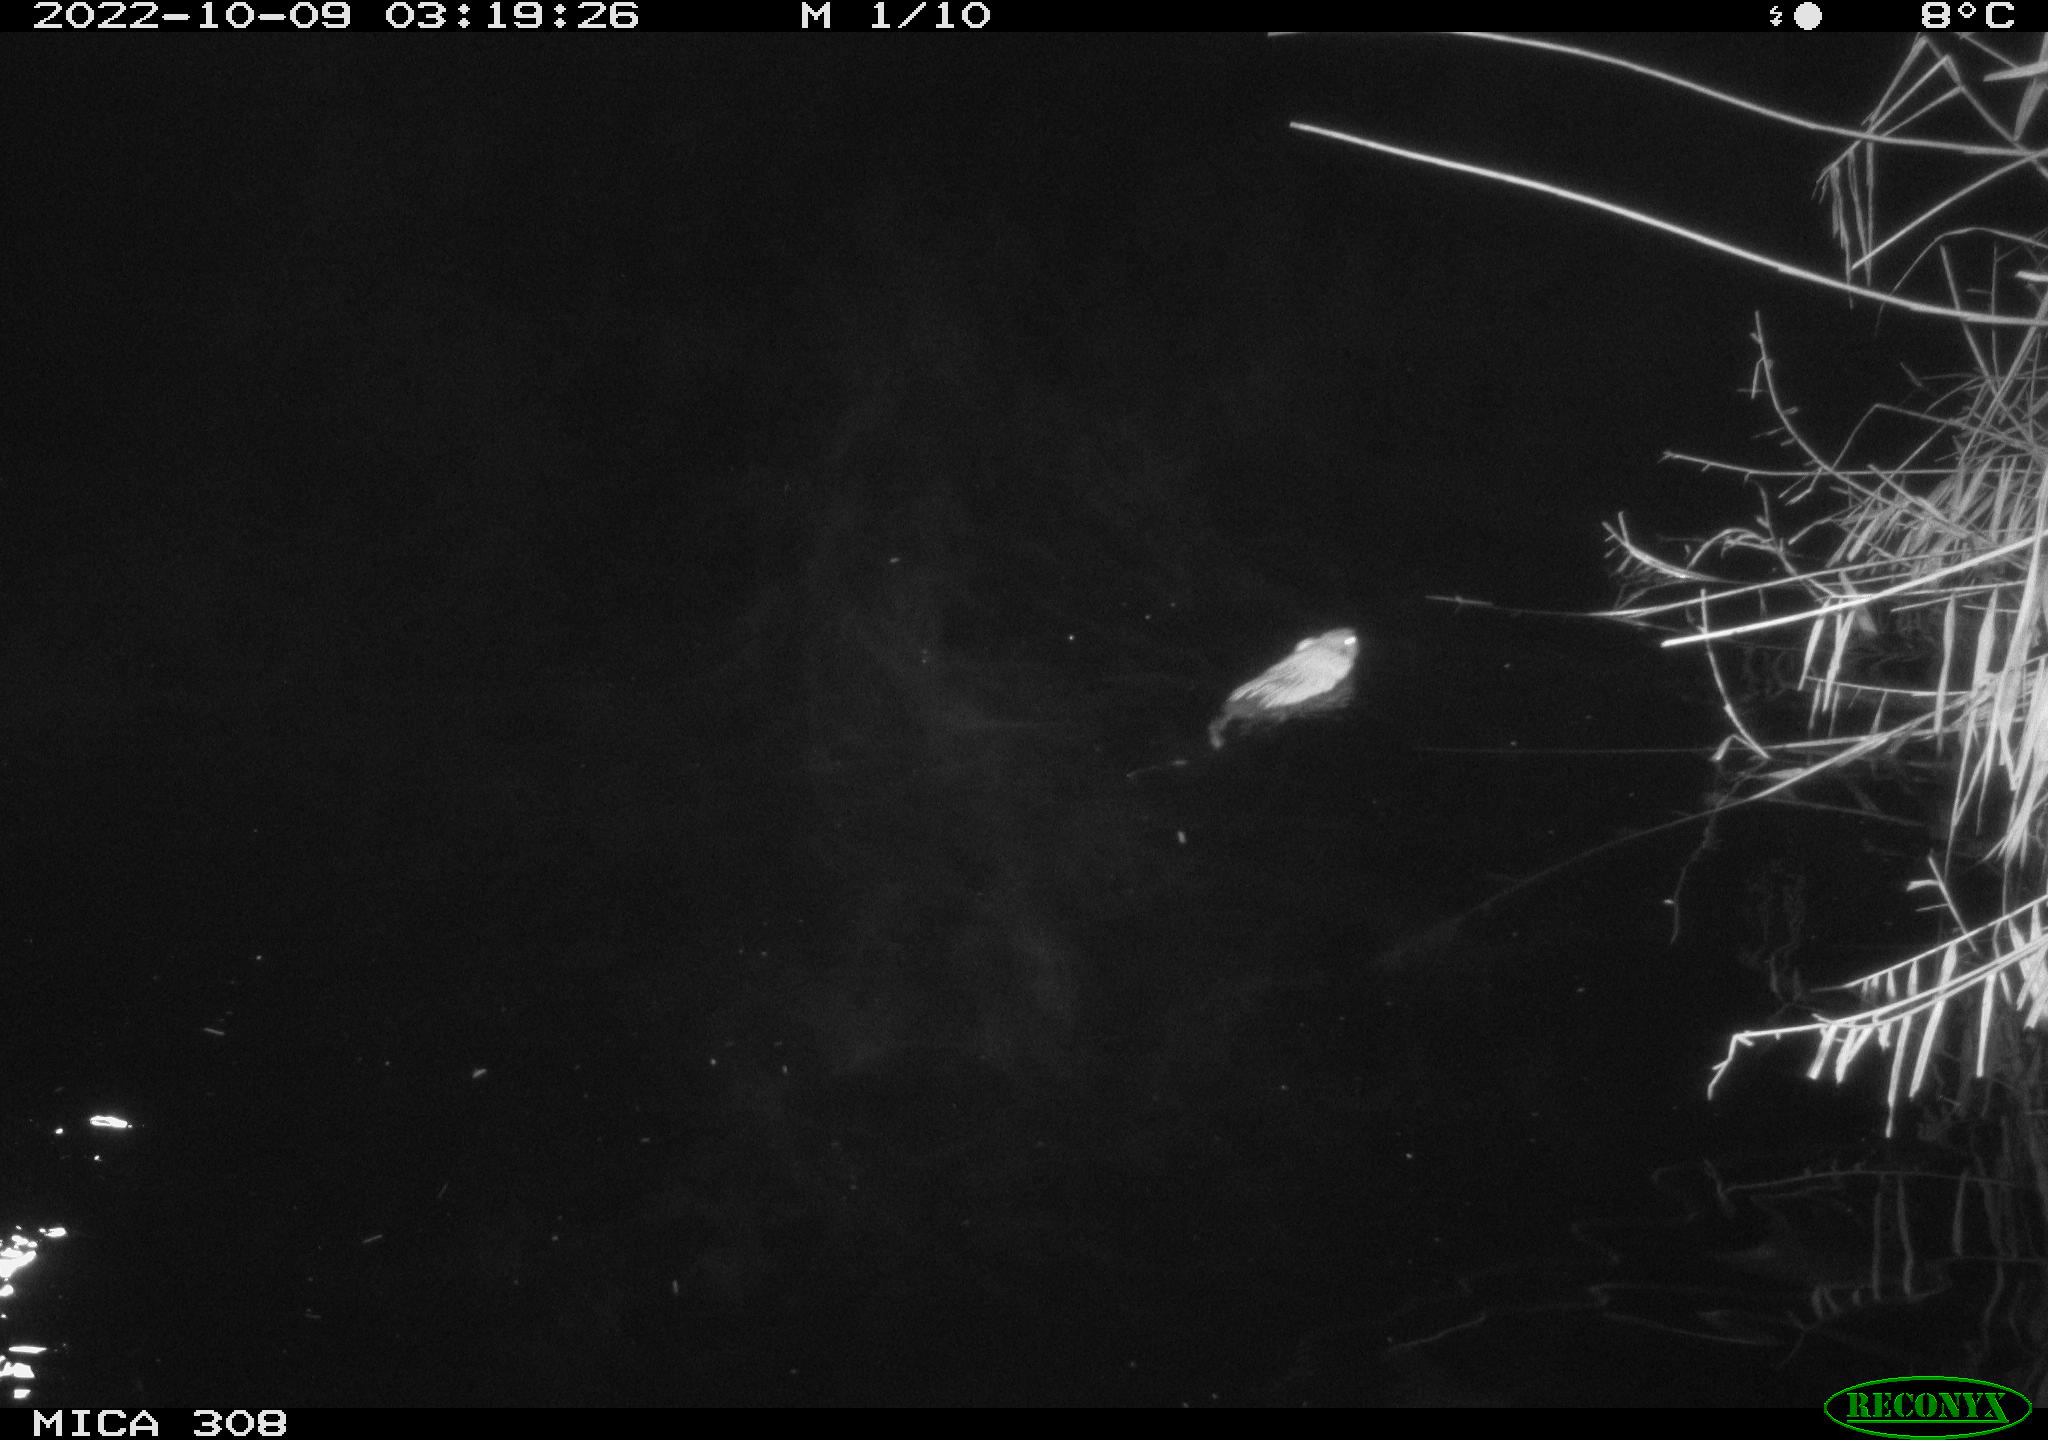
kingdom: Animalia
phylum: Chordata
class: Mammalia
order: Rodentia
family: Cricetidae
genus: Ondatra
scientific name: Ondatra zibethicus
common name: Muskrat
